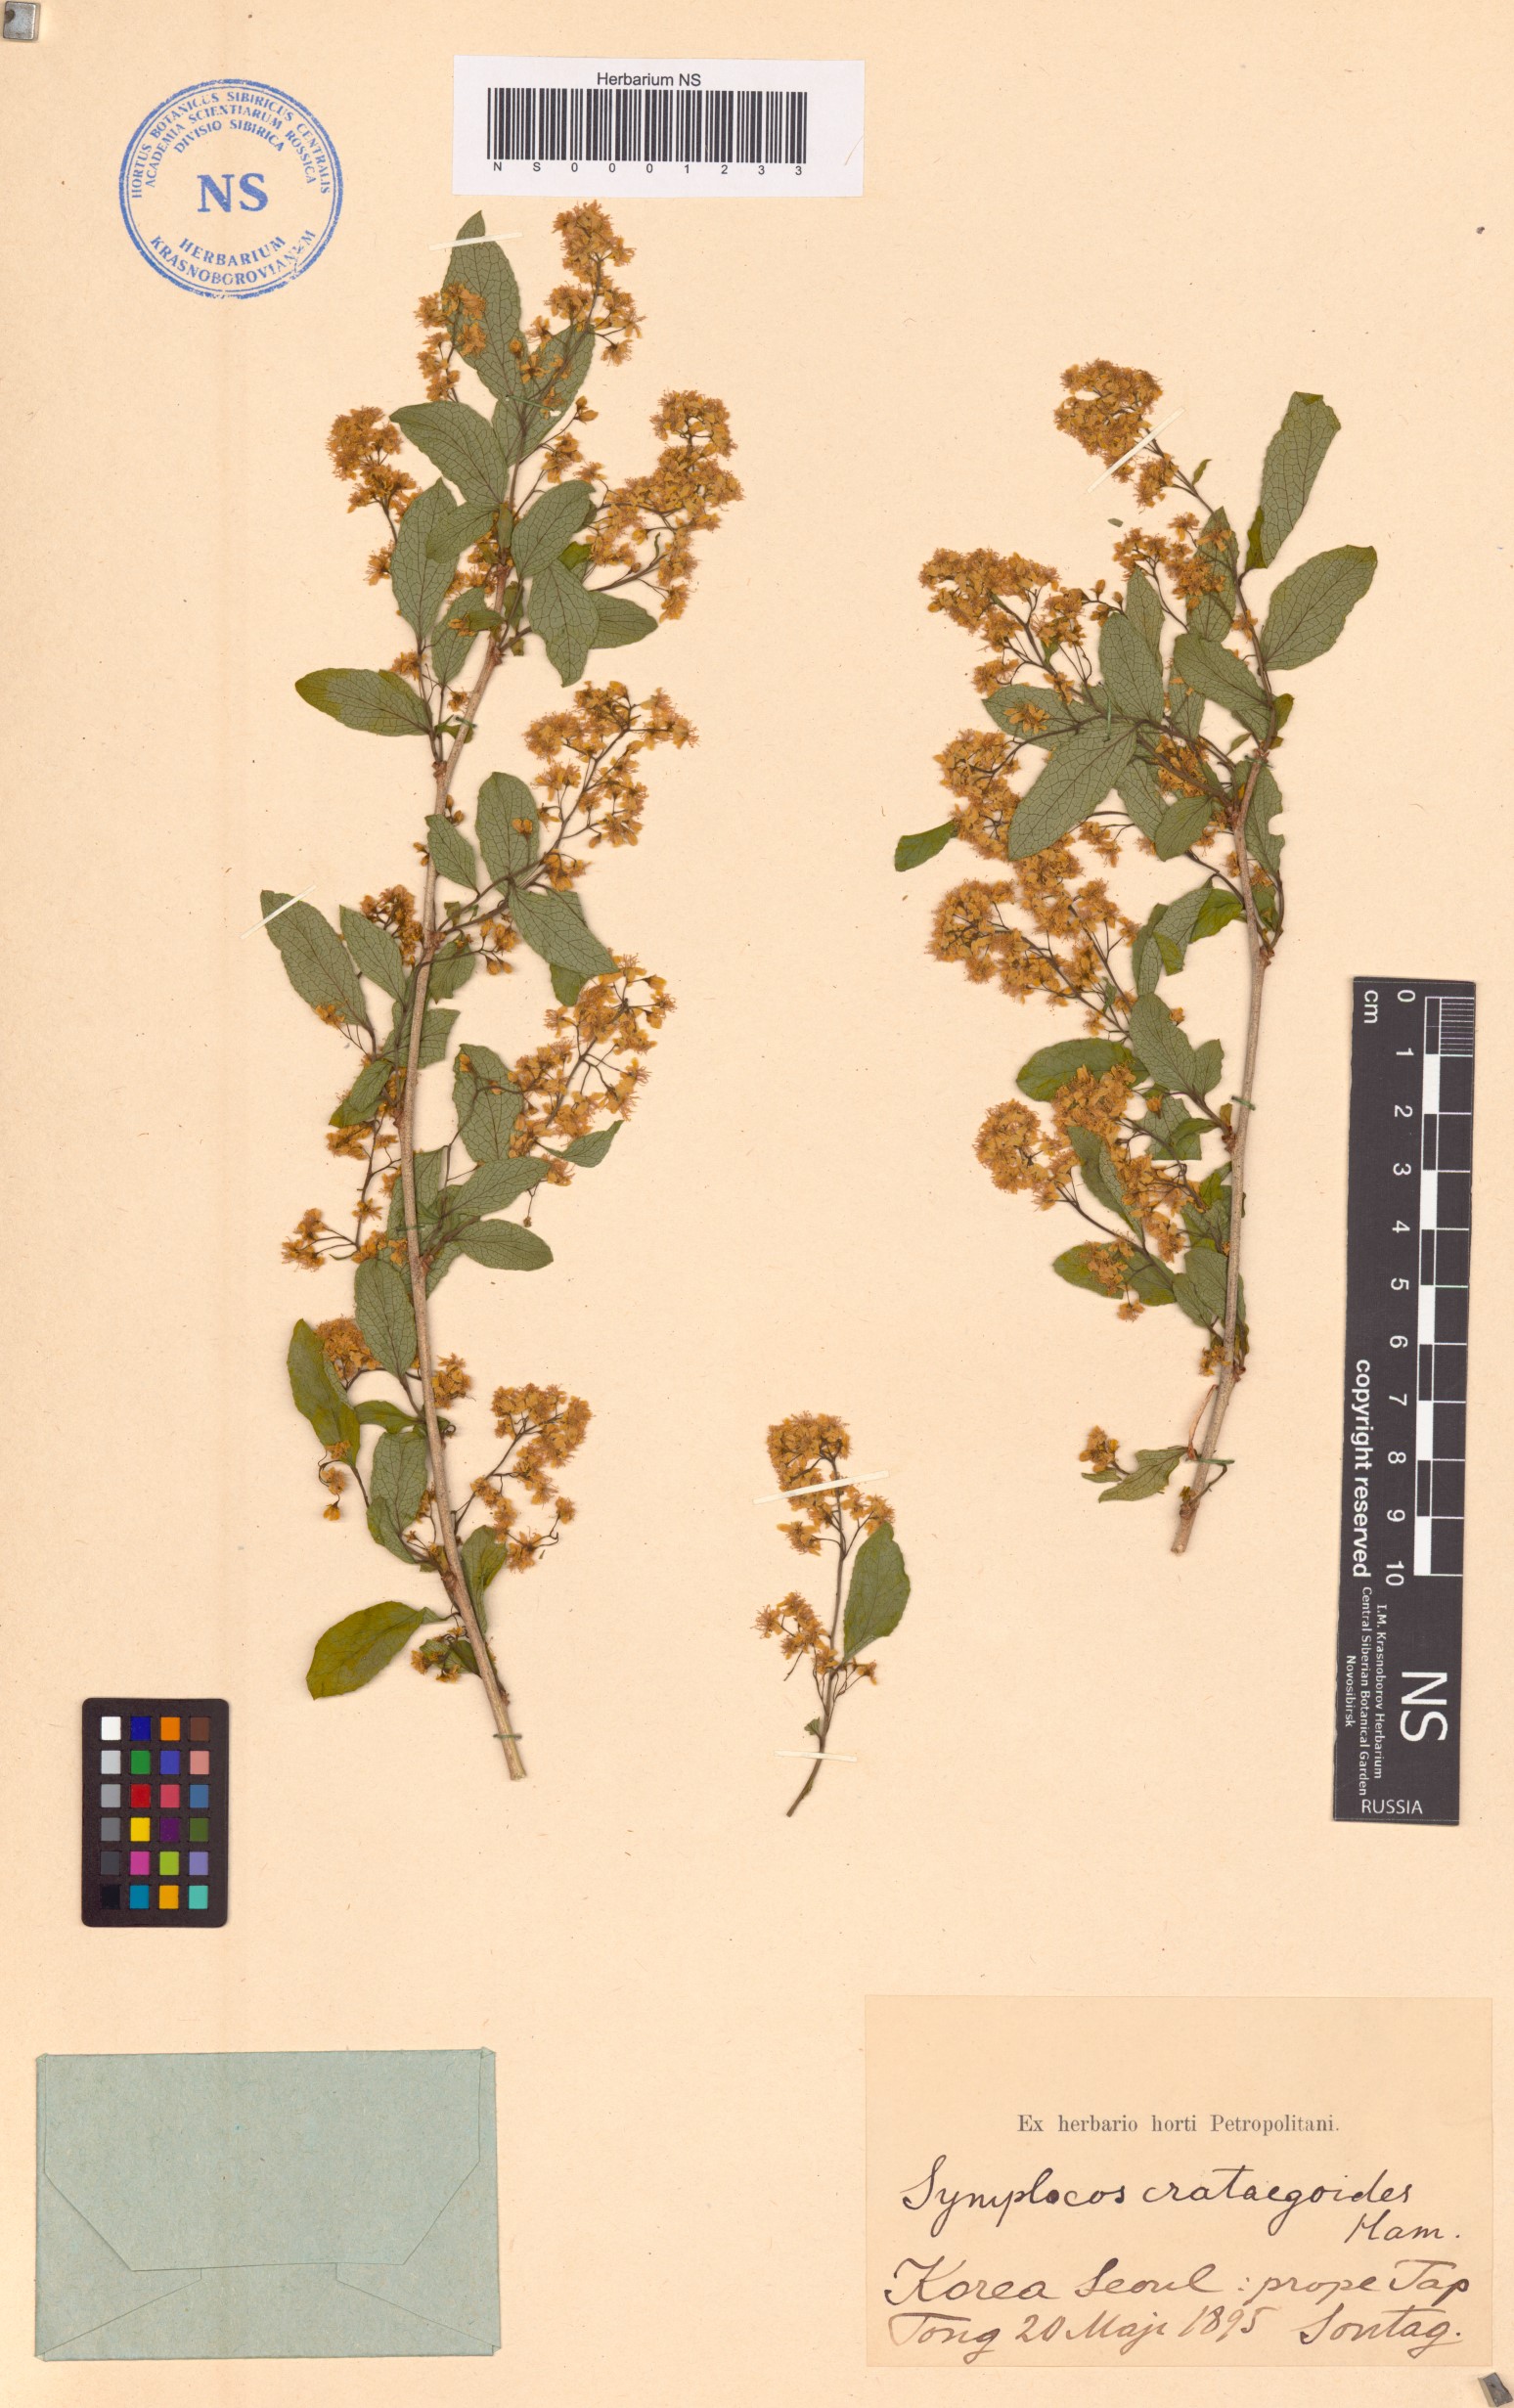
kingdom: Plantae
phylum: Tracheophyta
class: Magnoliopsida
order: Ericales
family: Symplocaceae
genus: Symplocos
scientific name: Symplocos paniculata
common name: Sapphire-berry
